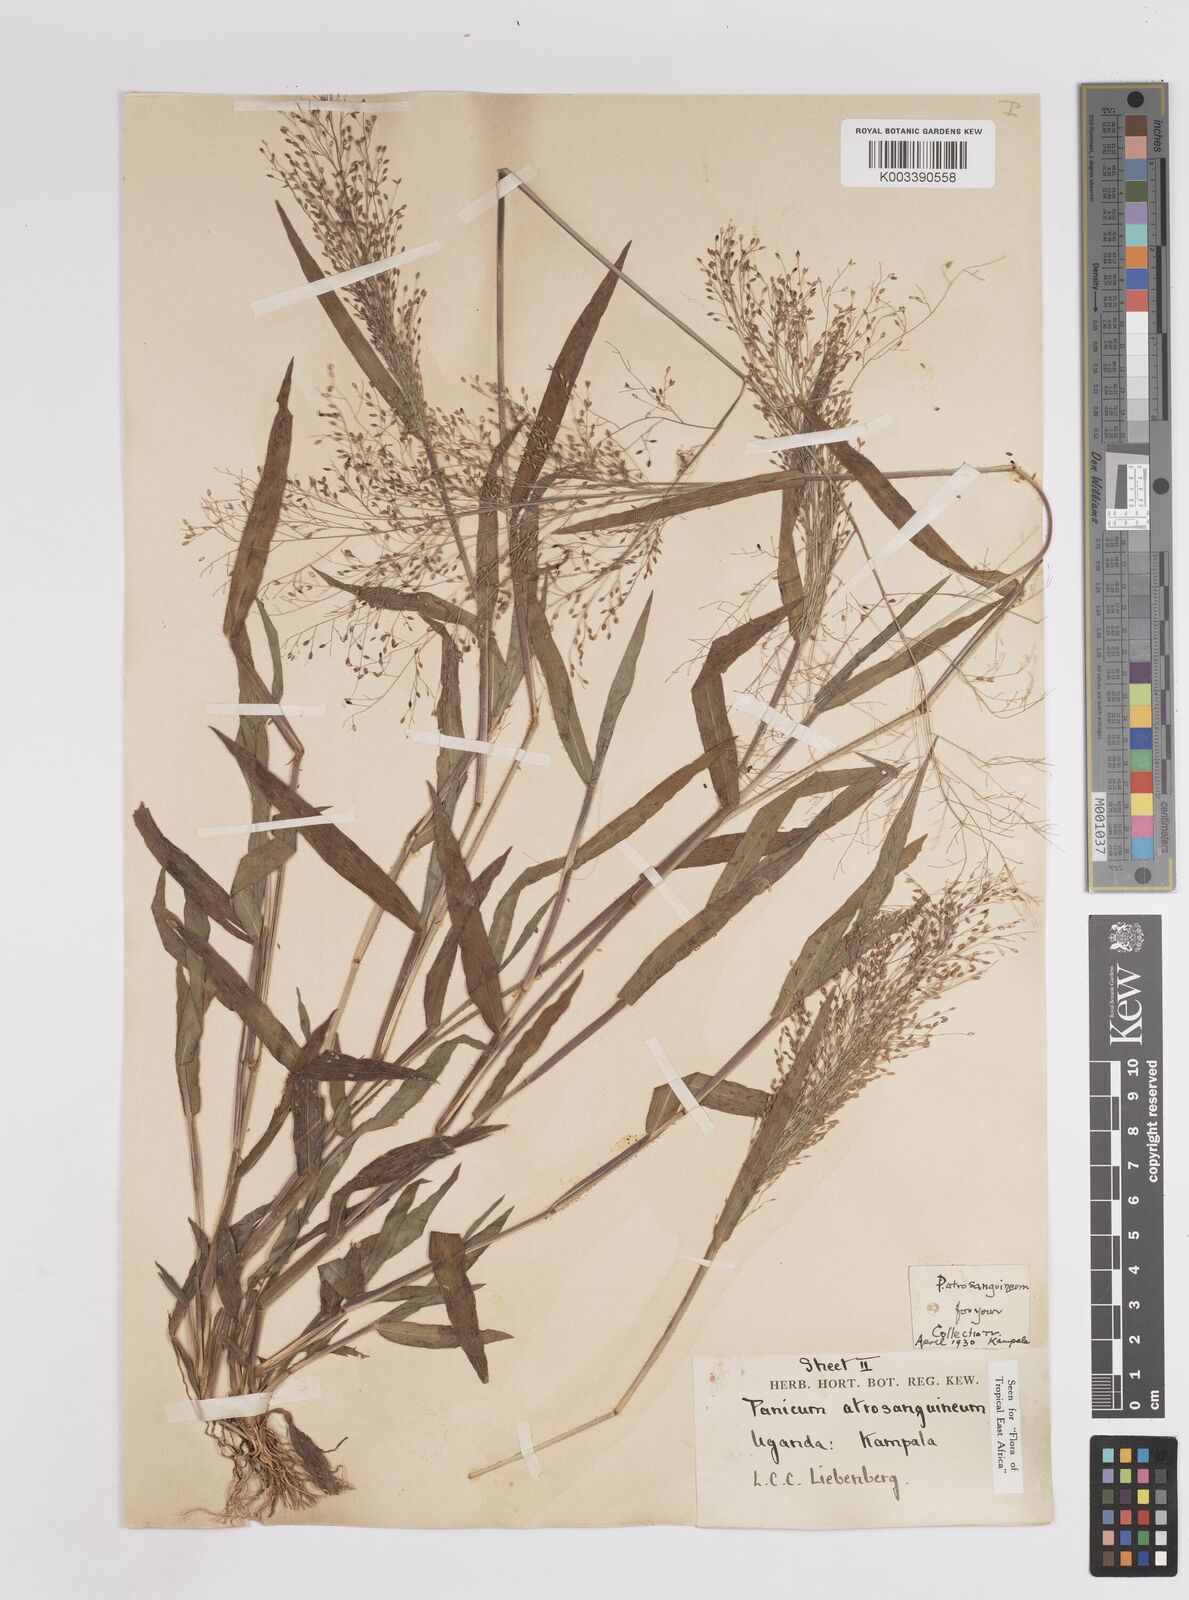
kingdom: Plantae
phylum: Tracheophyta
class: Liliopsida
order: Poales
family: Poaceae
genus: Panicum
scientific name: Panicum atrosanguineum
